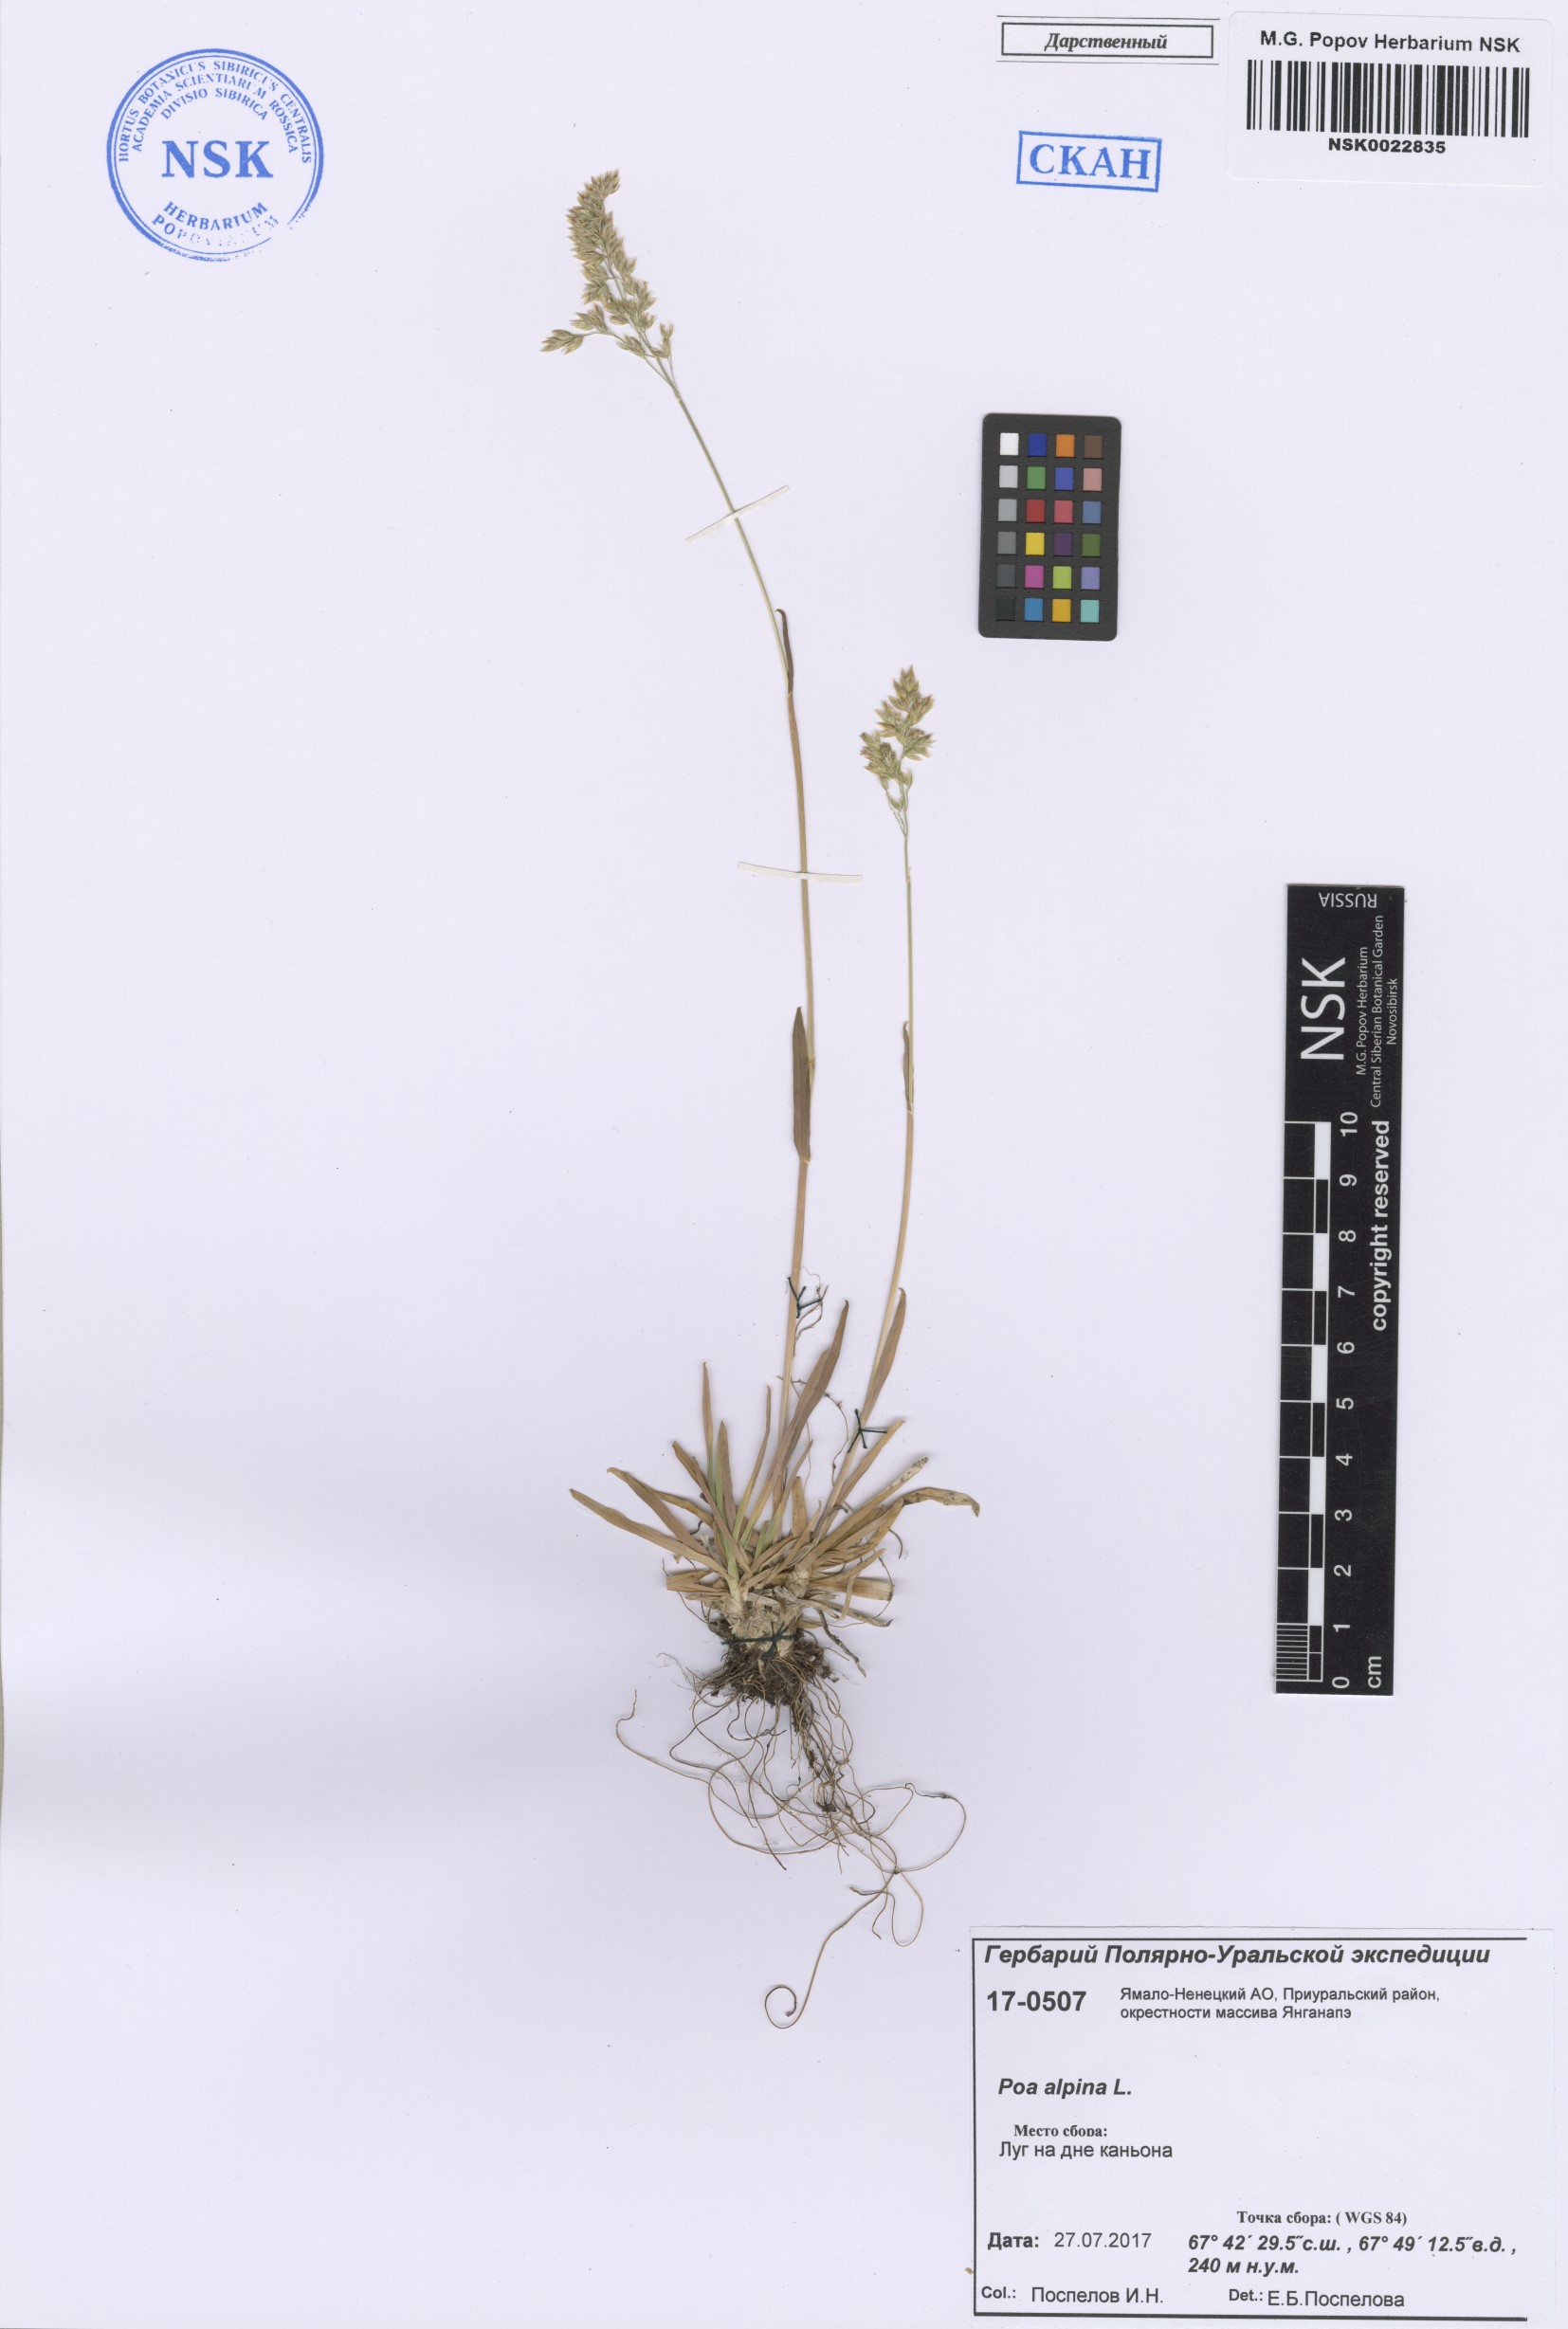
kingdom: Plantae
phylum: Tracheophyta
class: Liliopsida
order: Poales
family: Poaceae
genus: Poa
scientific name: Poa alpina
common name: Alpine bluegrass
